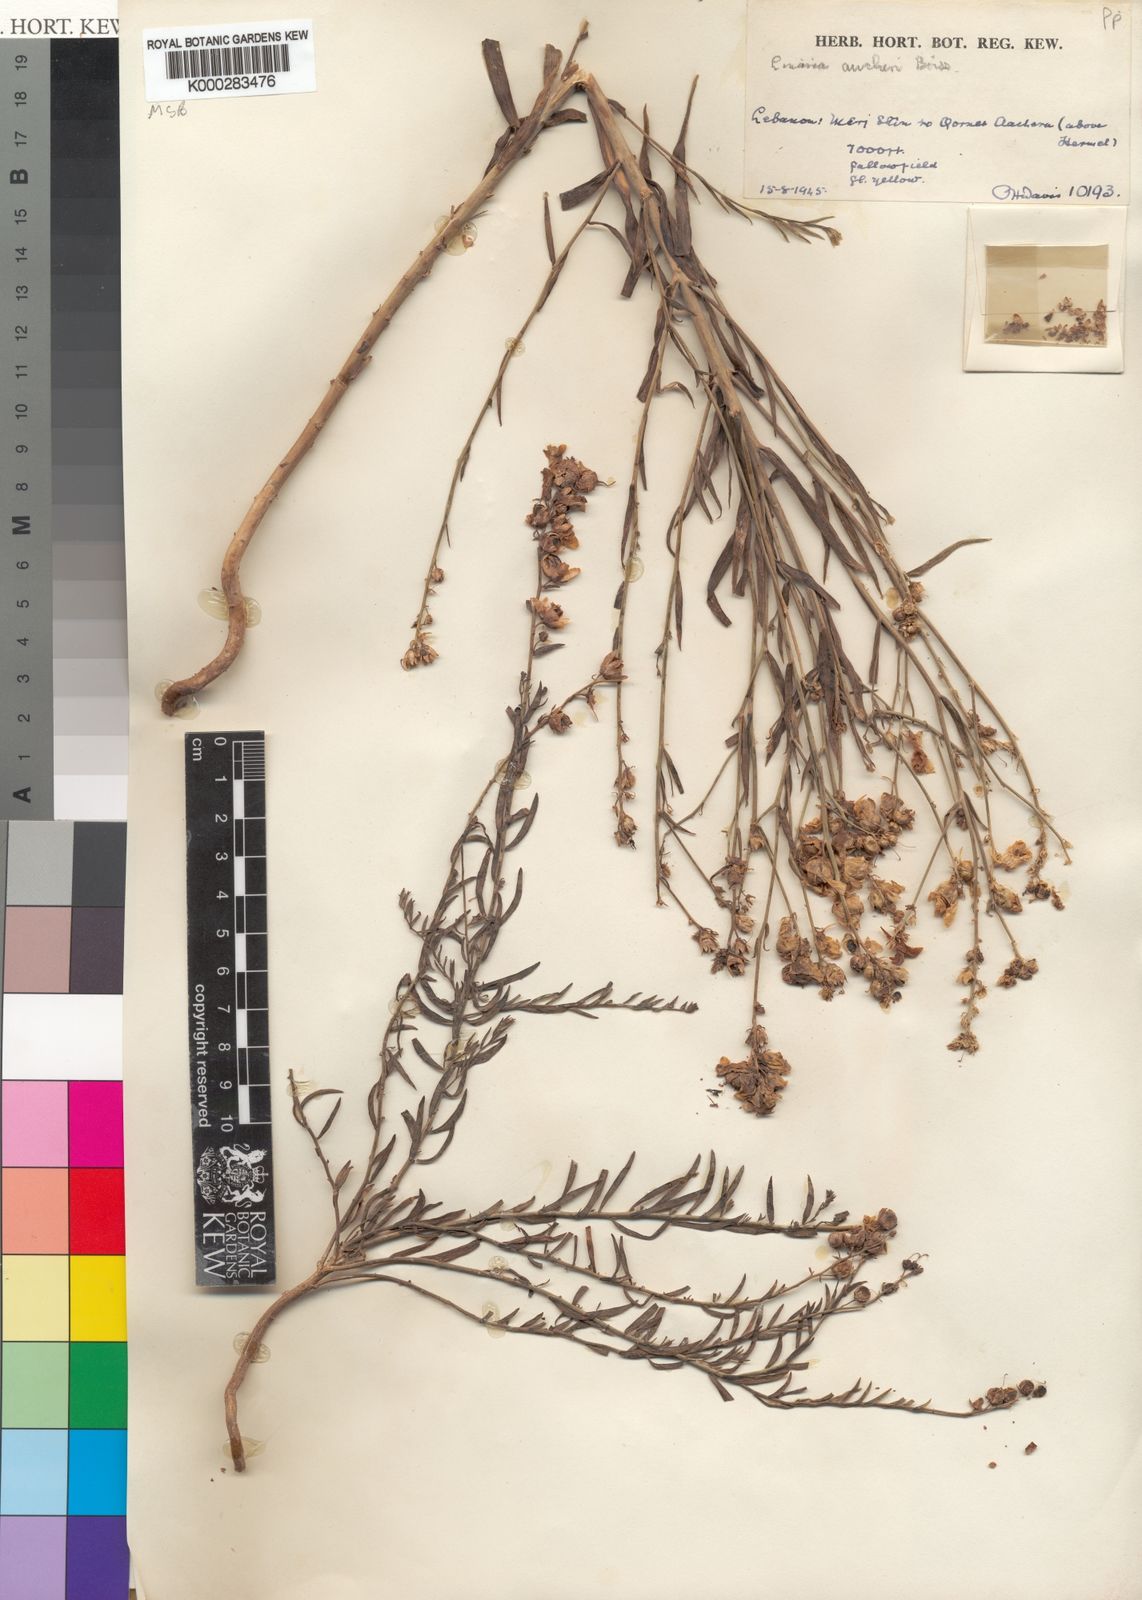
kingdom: Plantae
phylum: Tracheophyta
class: Magnoliopsida
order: Lamiales
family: Plantaginaceae
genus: Linaria
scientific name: Linaria kurdica
